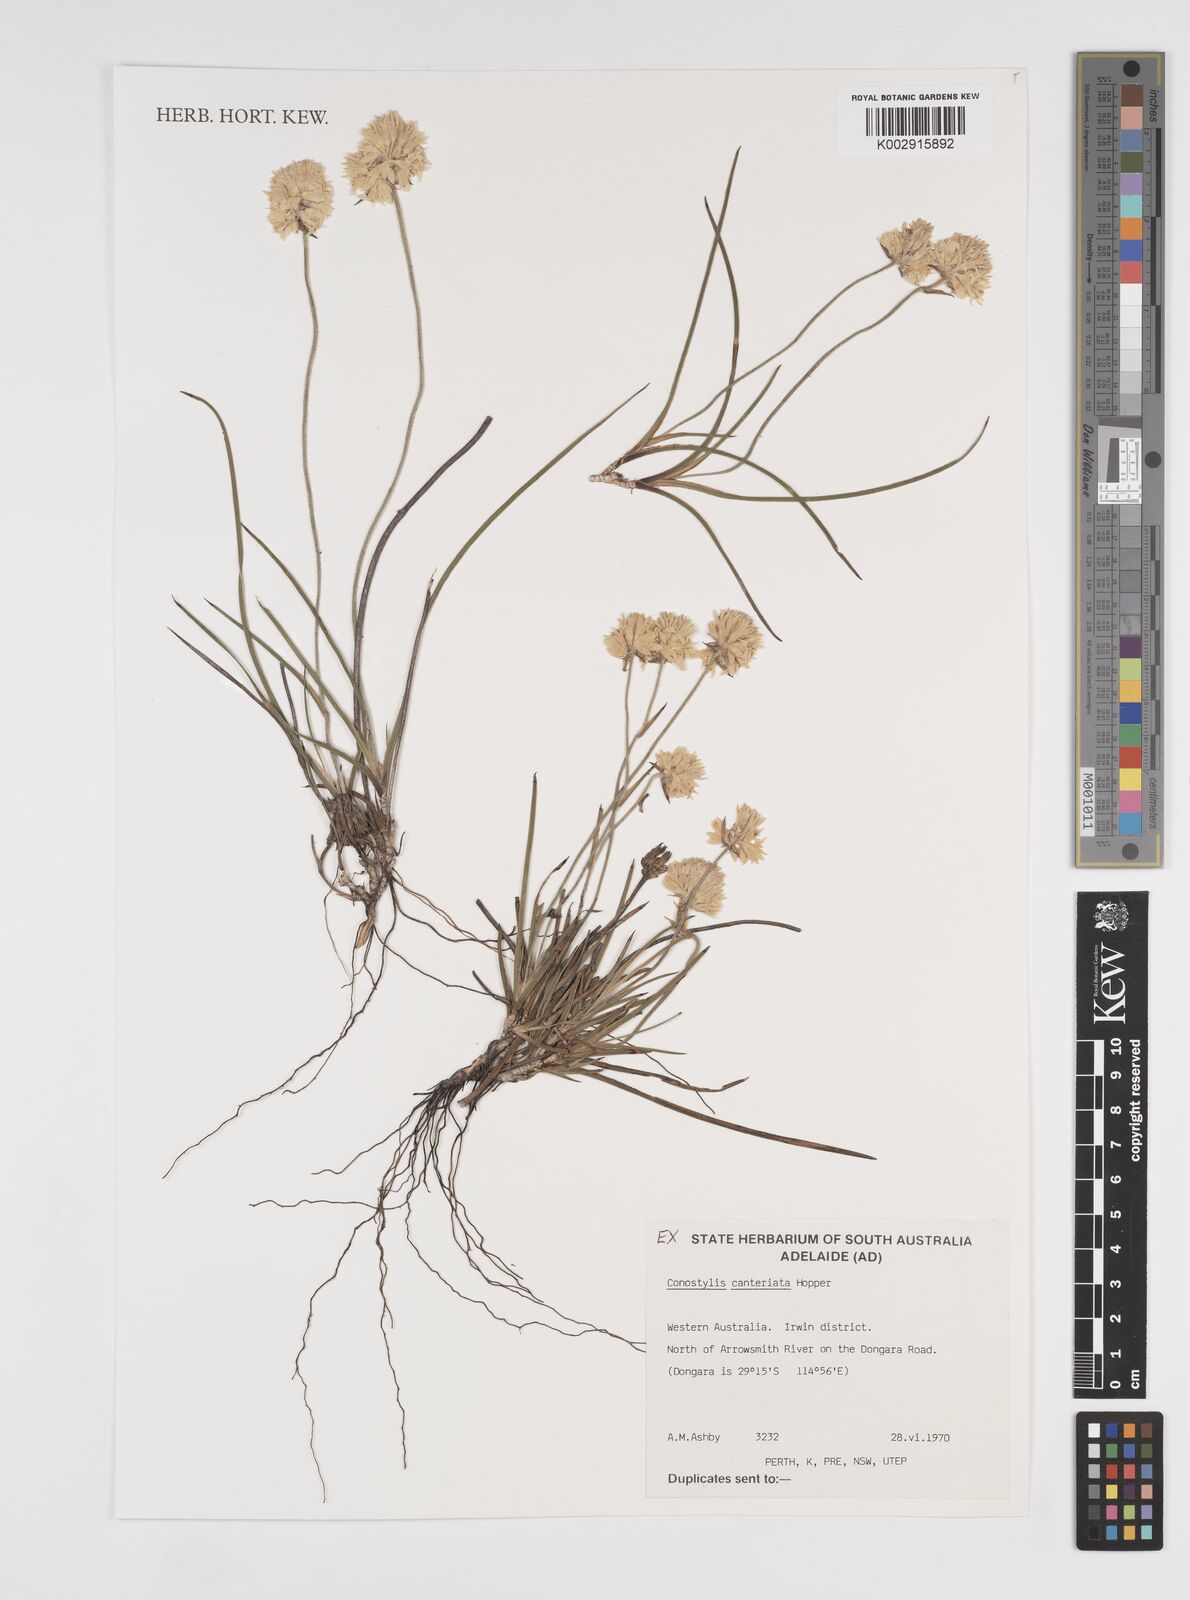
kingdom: Plantae
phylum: Tracheophyta
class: Liliopsida
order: Commelinales
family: Haemodoraceae
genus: Conostylis
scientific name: Conostylis canteriata
